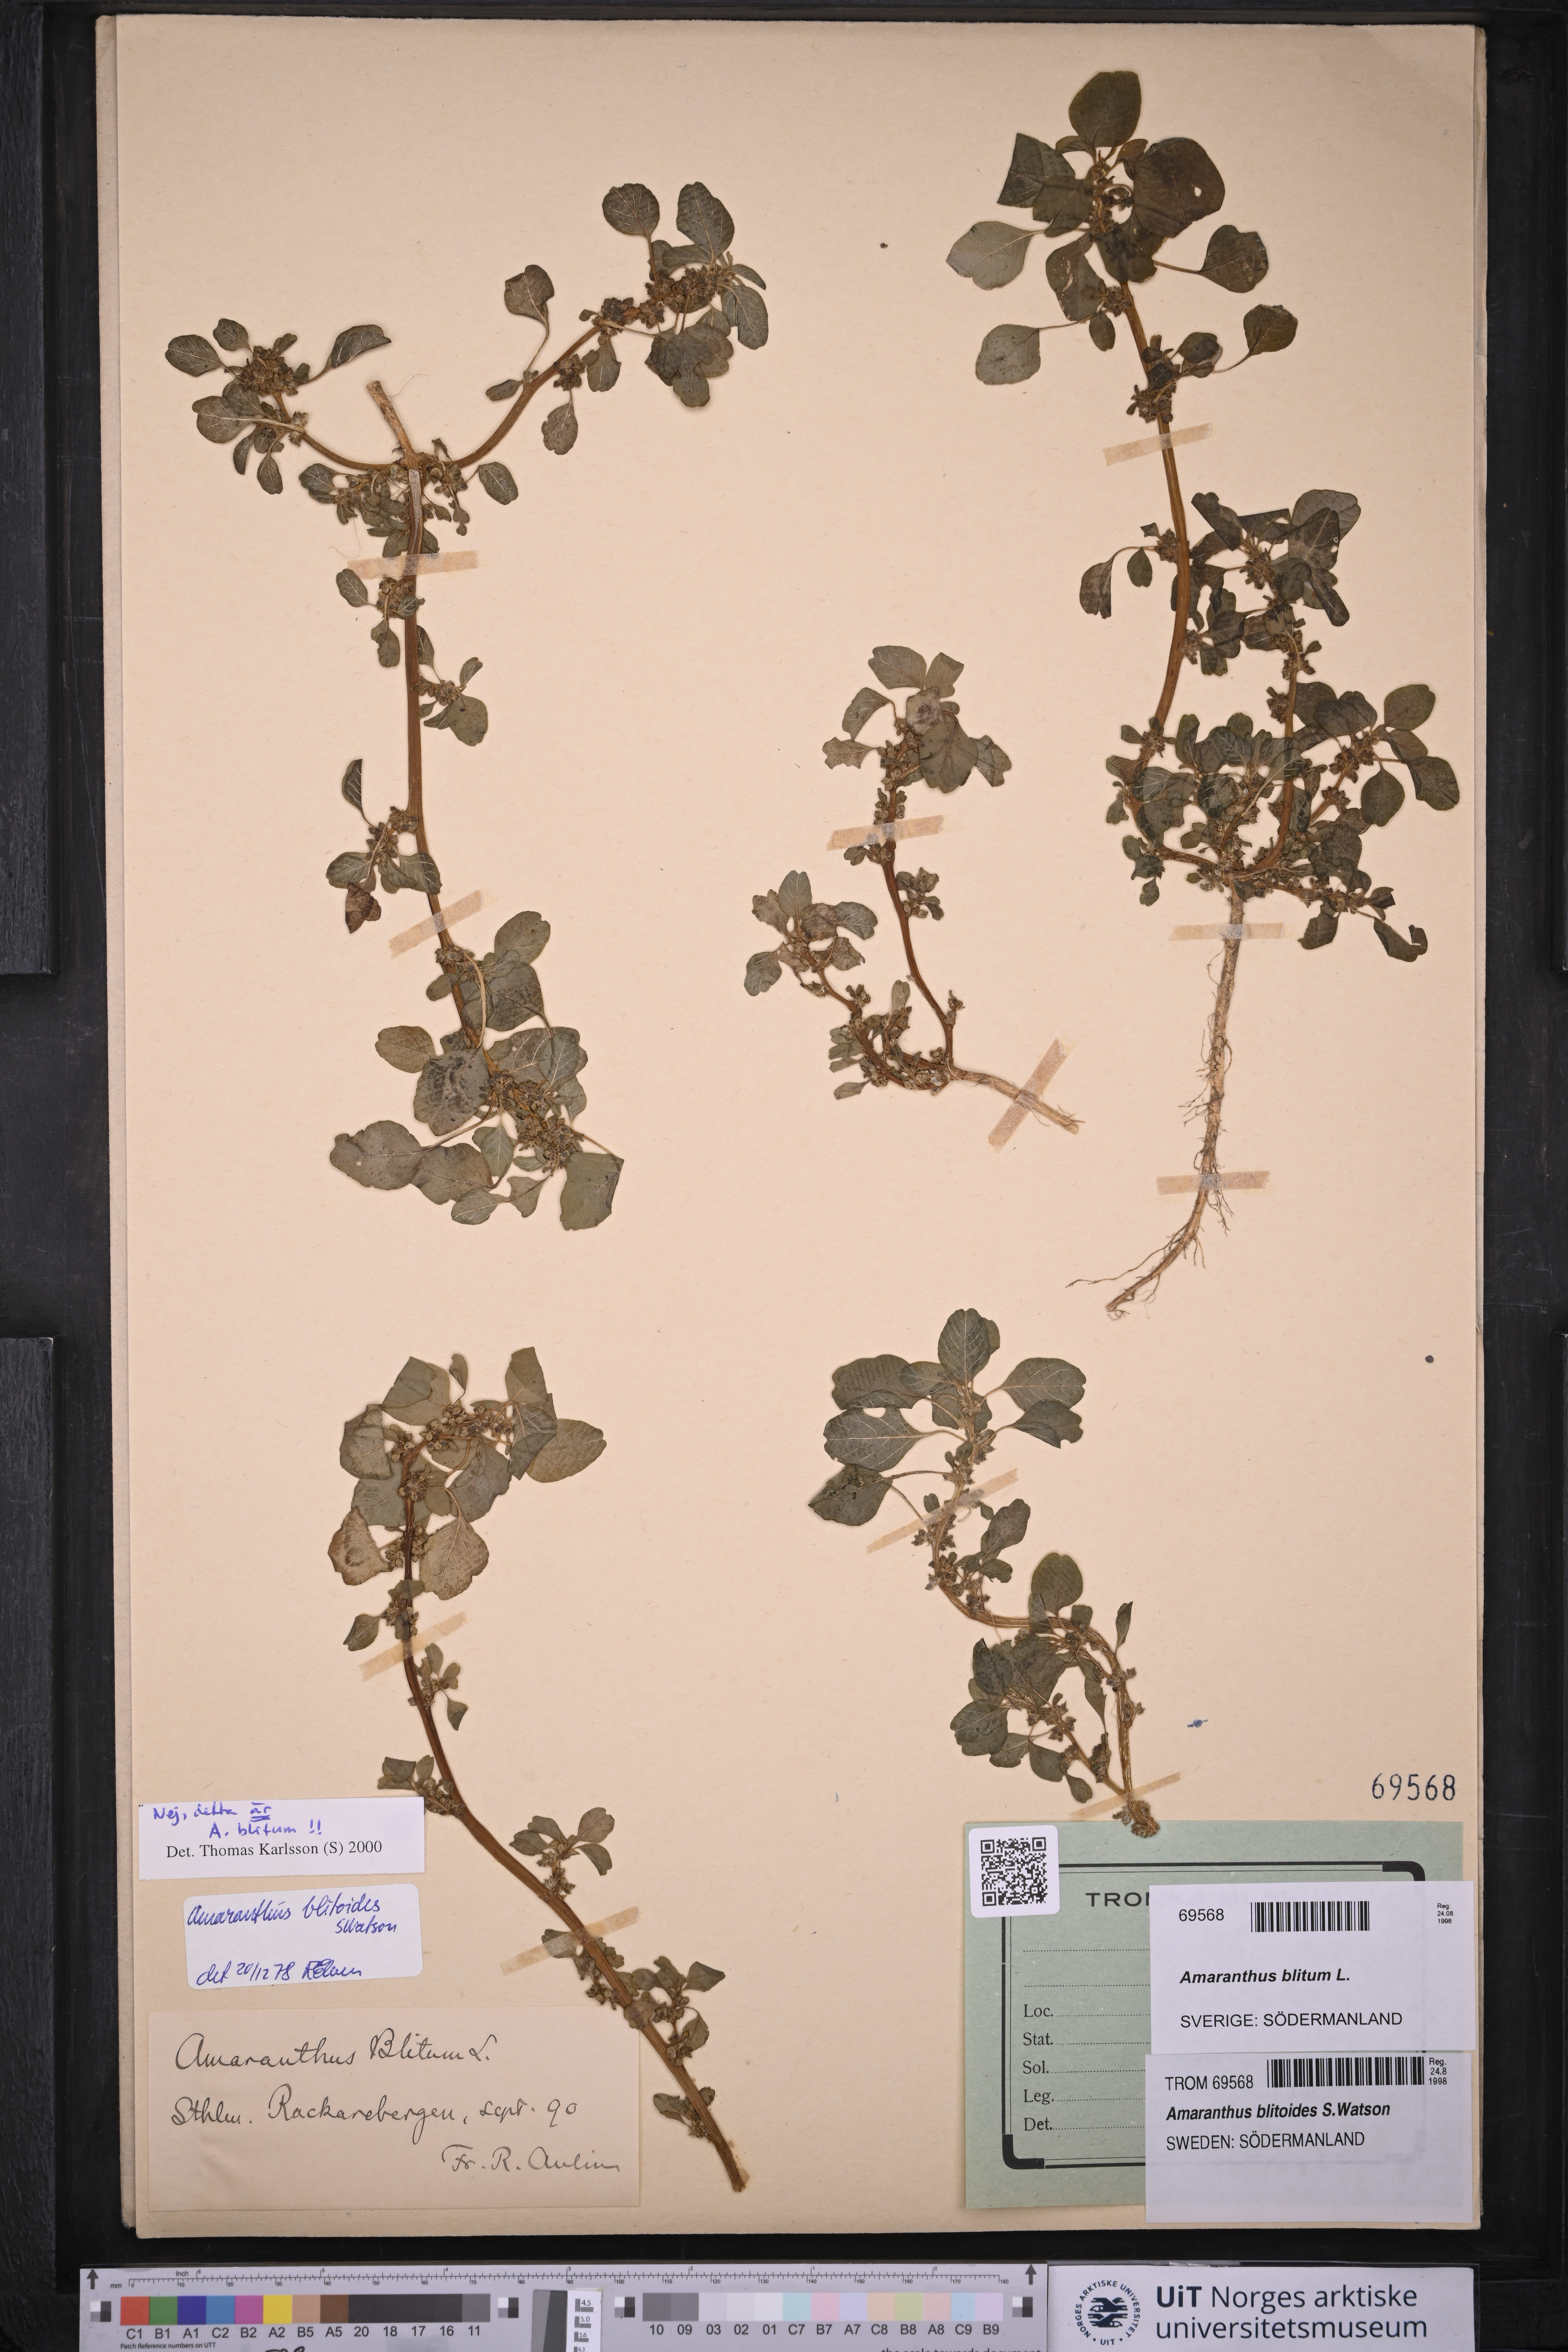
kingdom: Plantae
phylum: Tracheophyta
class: Magnoliopsida
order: Caryophyllales
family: Amaranthaceae
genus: Amaranthus
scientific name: Amaranthus blitum
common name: Purple amaranth
